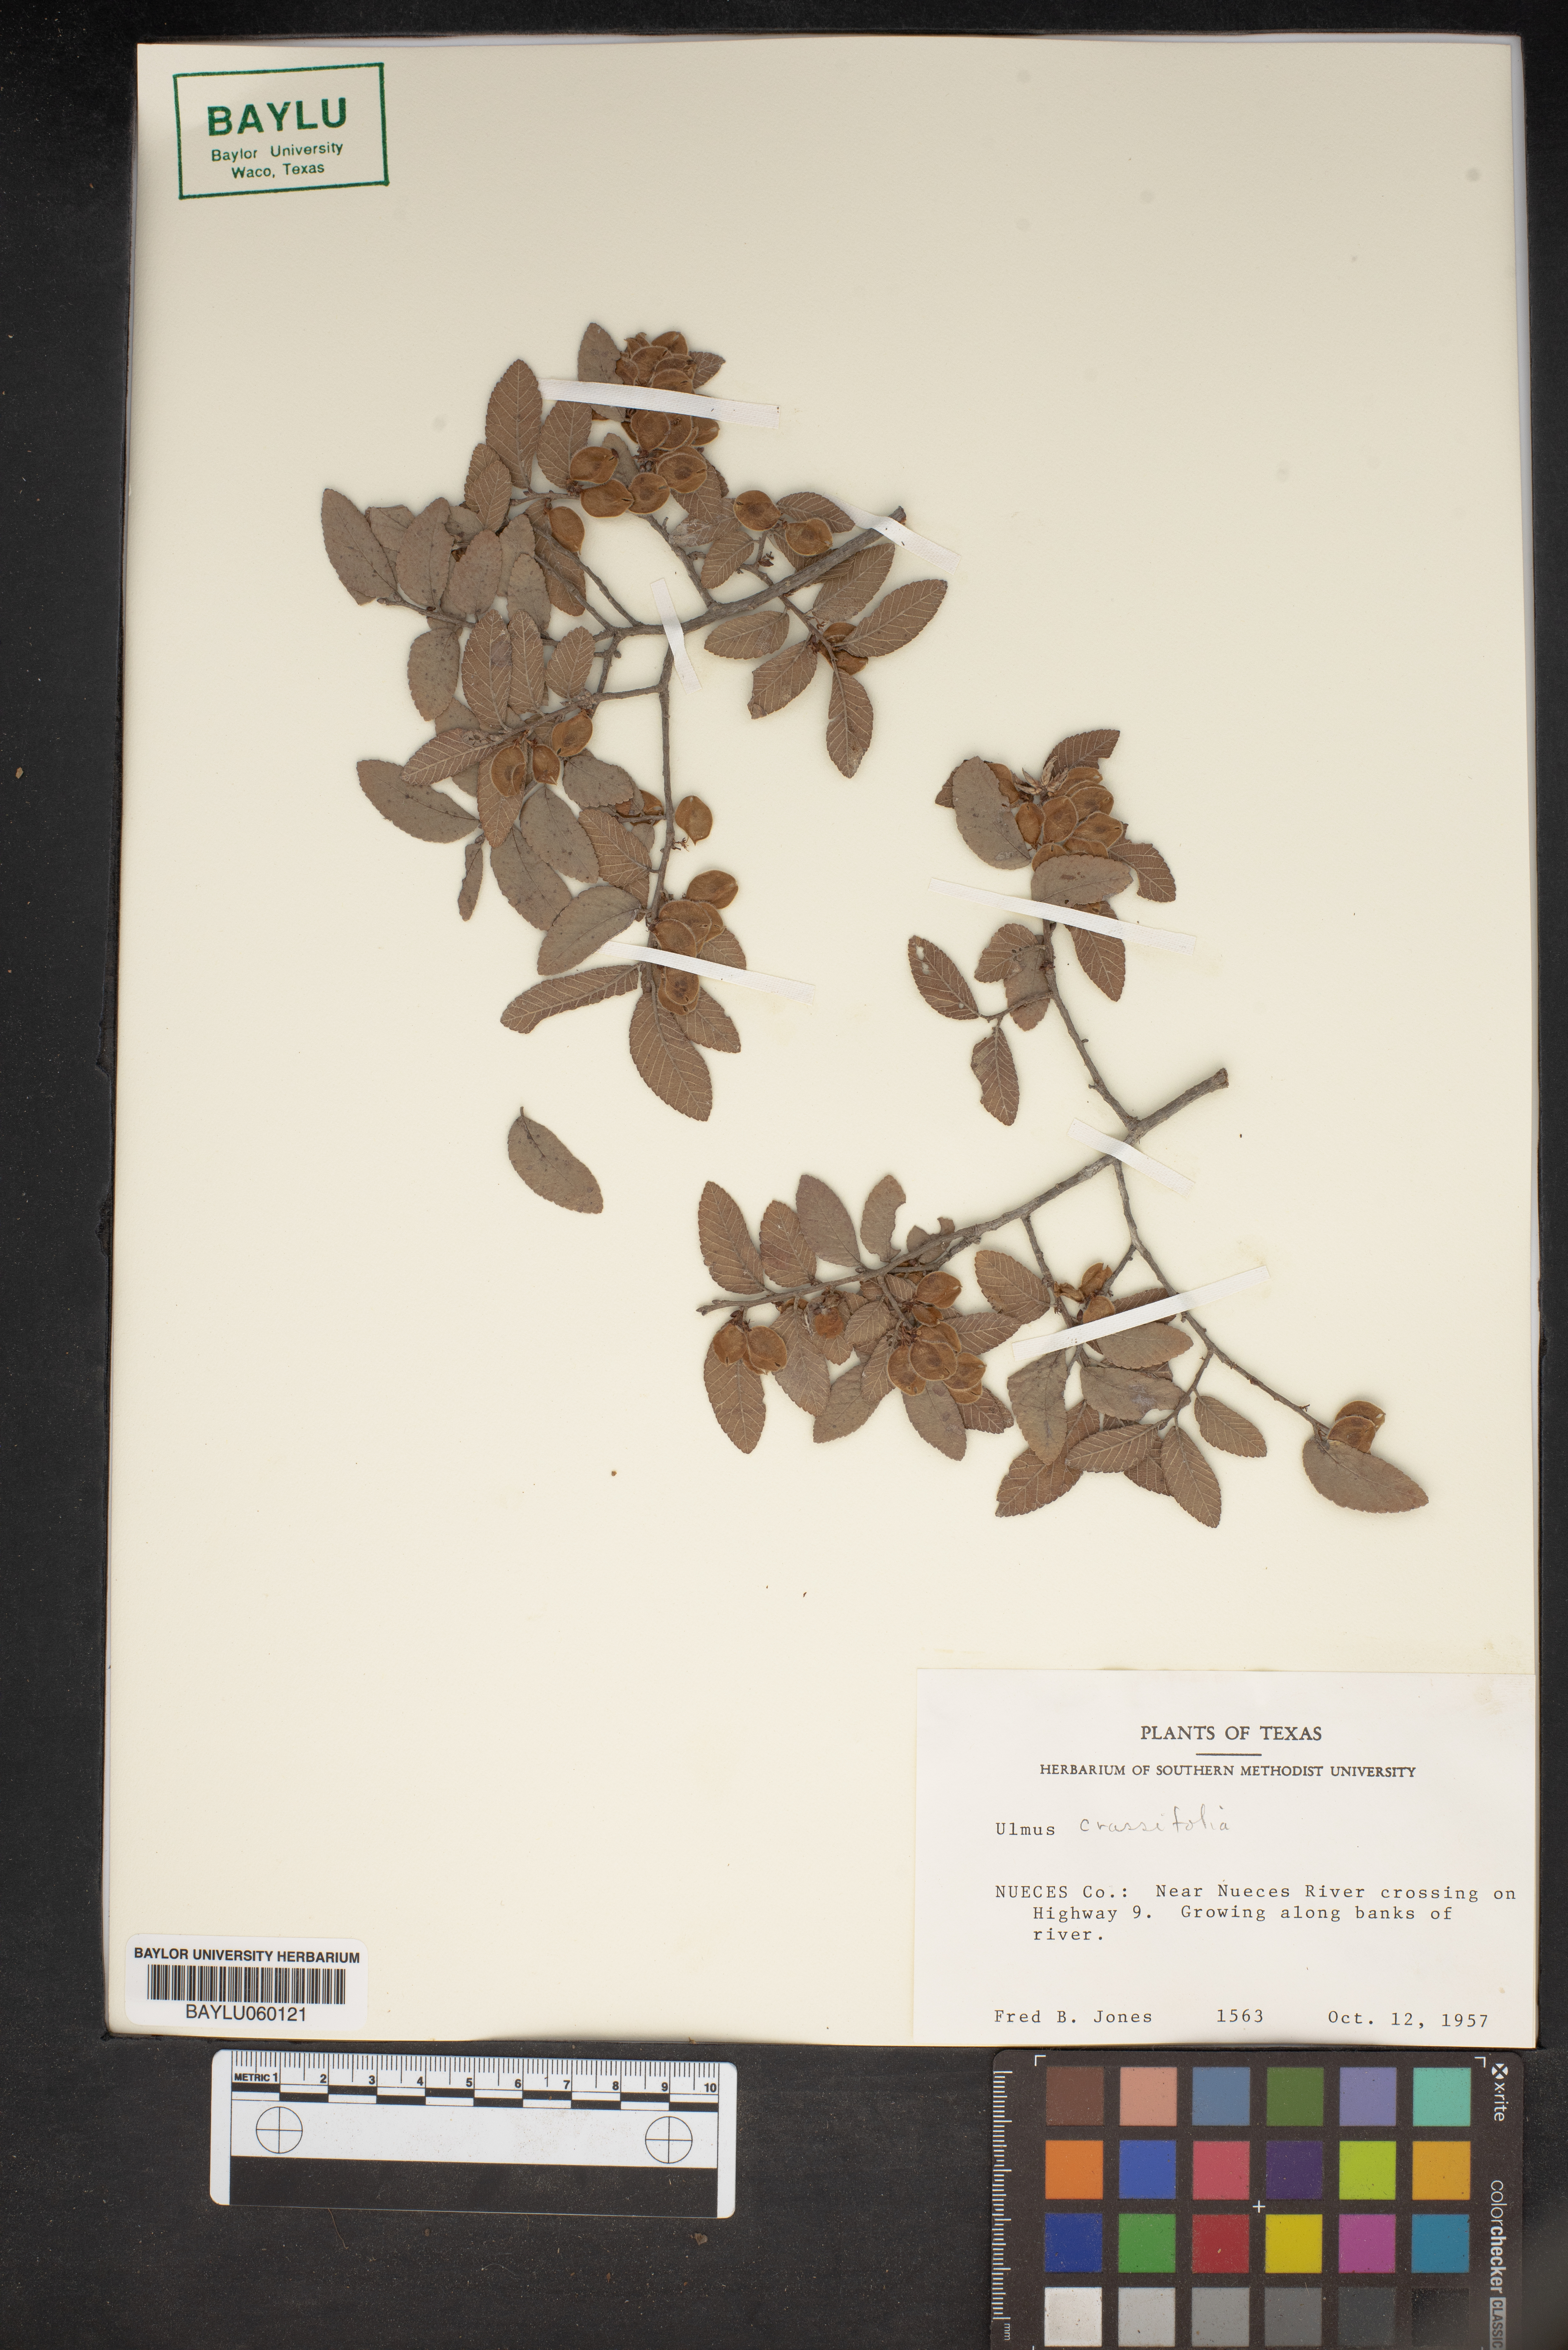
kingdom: Plantae
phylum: Tracheophyta
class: Magnoliopsida
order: Rosales
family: Ulmaceae
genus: Ulmus
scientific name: Ulmus crassifolia
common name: Basket elm
